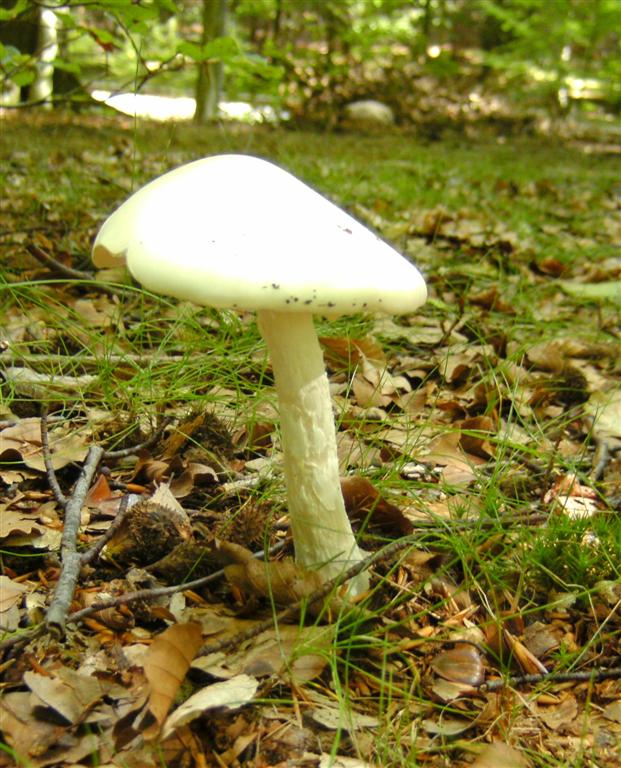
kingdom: Fungi
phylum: Basidiomycota
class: Agaricomycetes
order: Agaricales
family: Amanitaceae
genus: Amanita
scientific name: Amanita virosa
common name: snehvid fluesvamp
